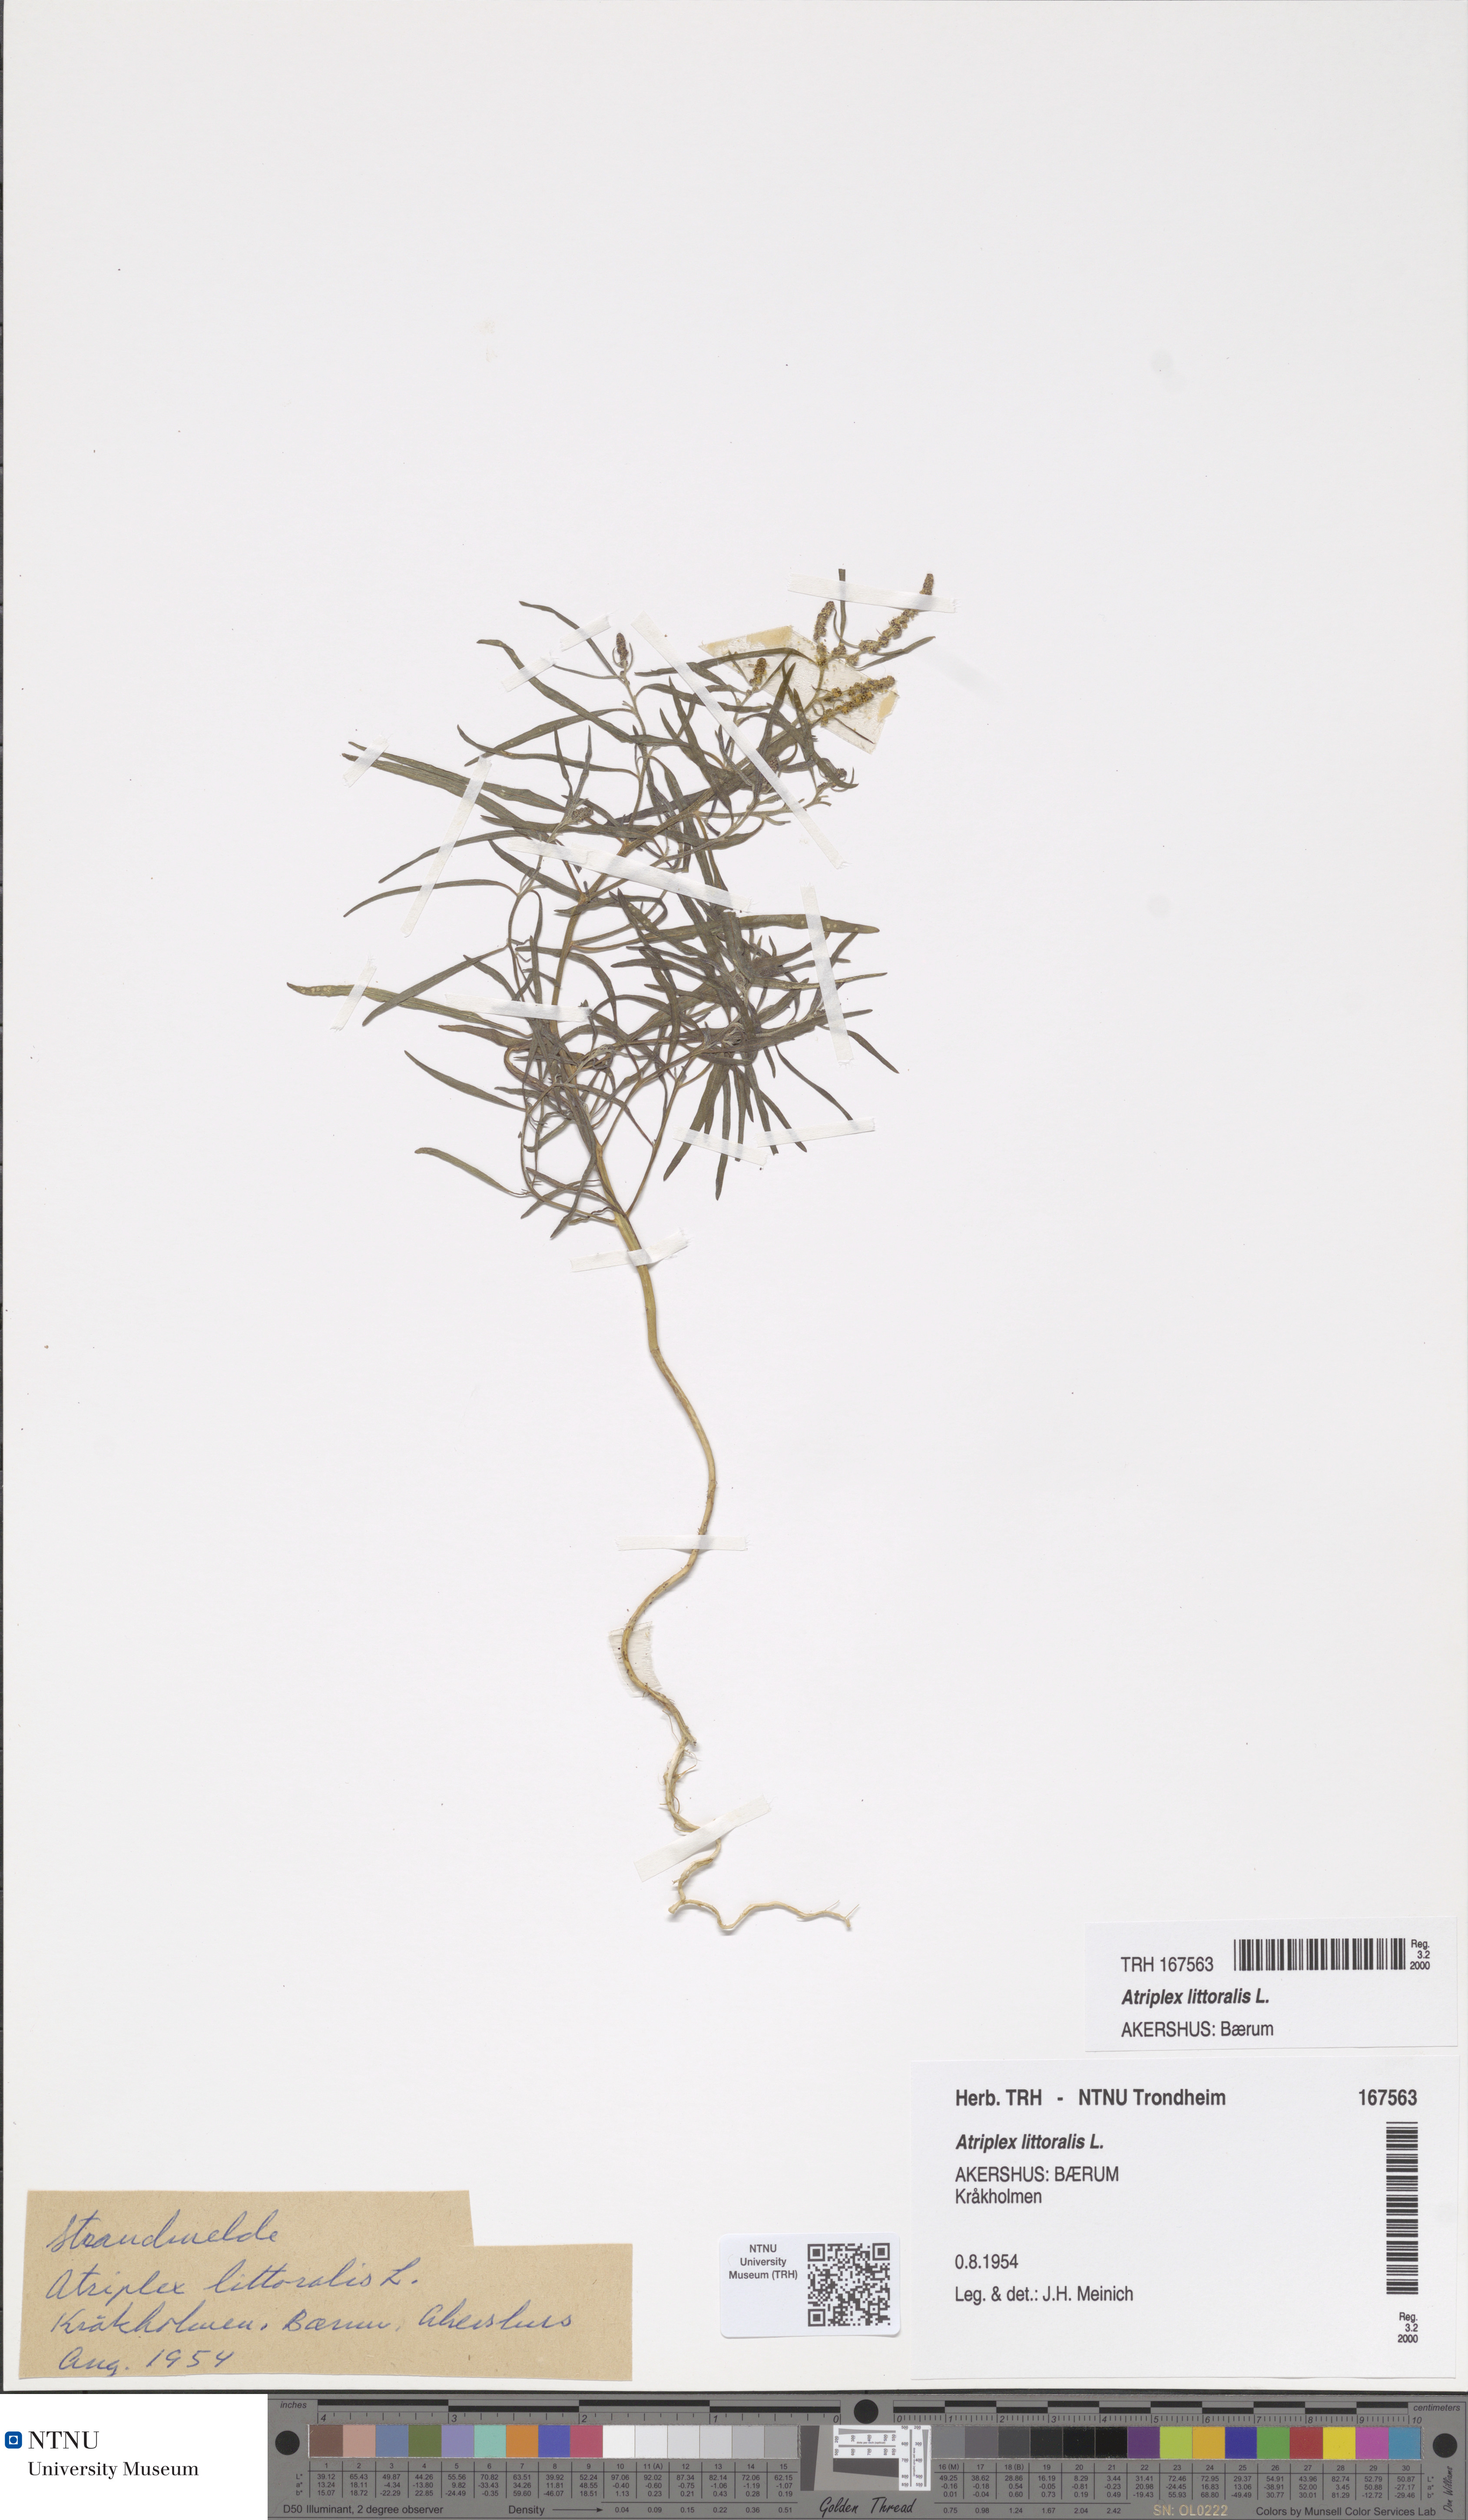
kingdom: Plantae
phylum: Tracheophyta
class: Magnoliopsida
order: Caryophyllales
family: Amaranthaceae
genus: Atriplex
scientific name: Atriplex littoralis
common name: Grass-leaved orache
